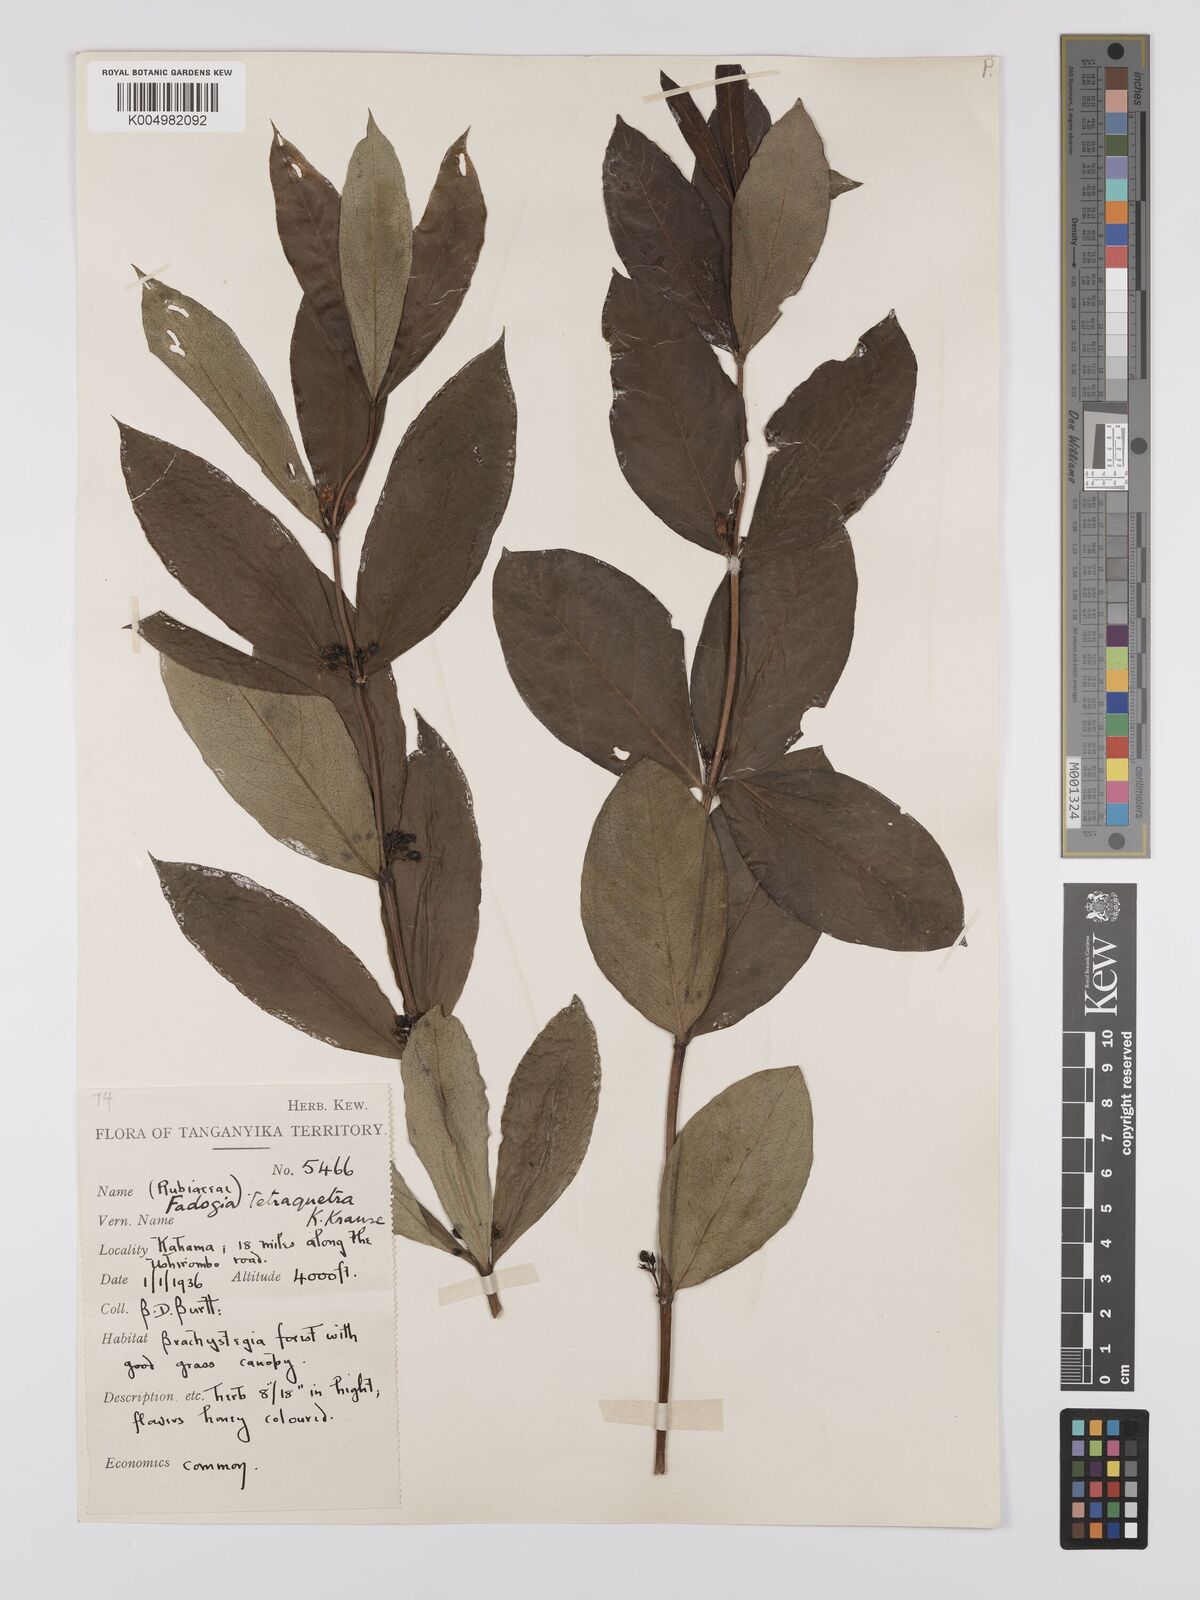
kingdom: Plantae
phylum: Tracheophyta
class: Magnoliopsida
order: Gentianales
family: Rubiaceae
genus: Fadogia
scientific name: Fadogia tetraquetra
